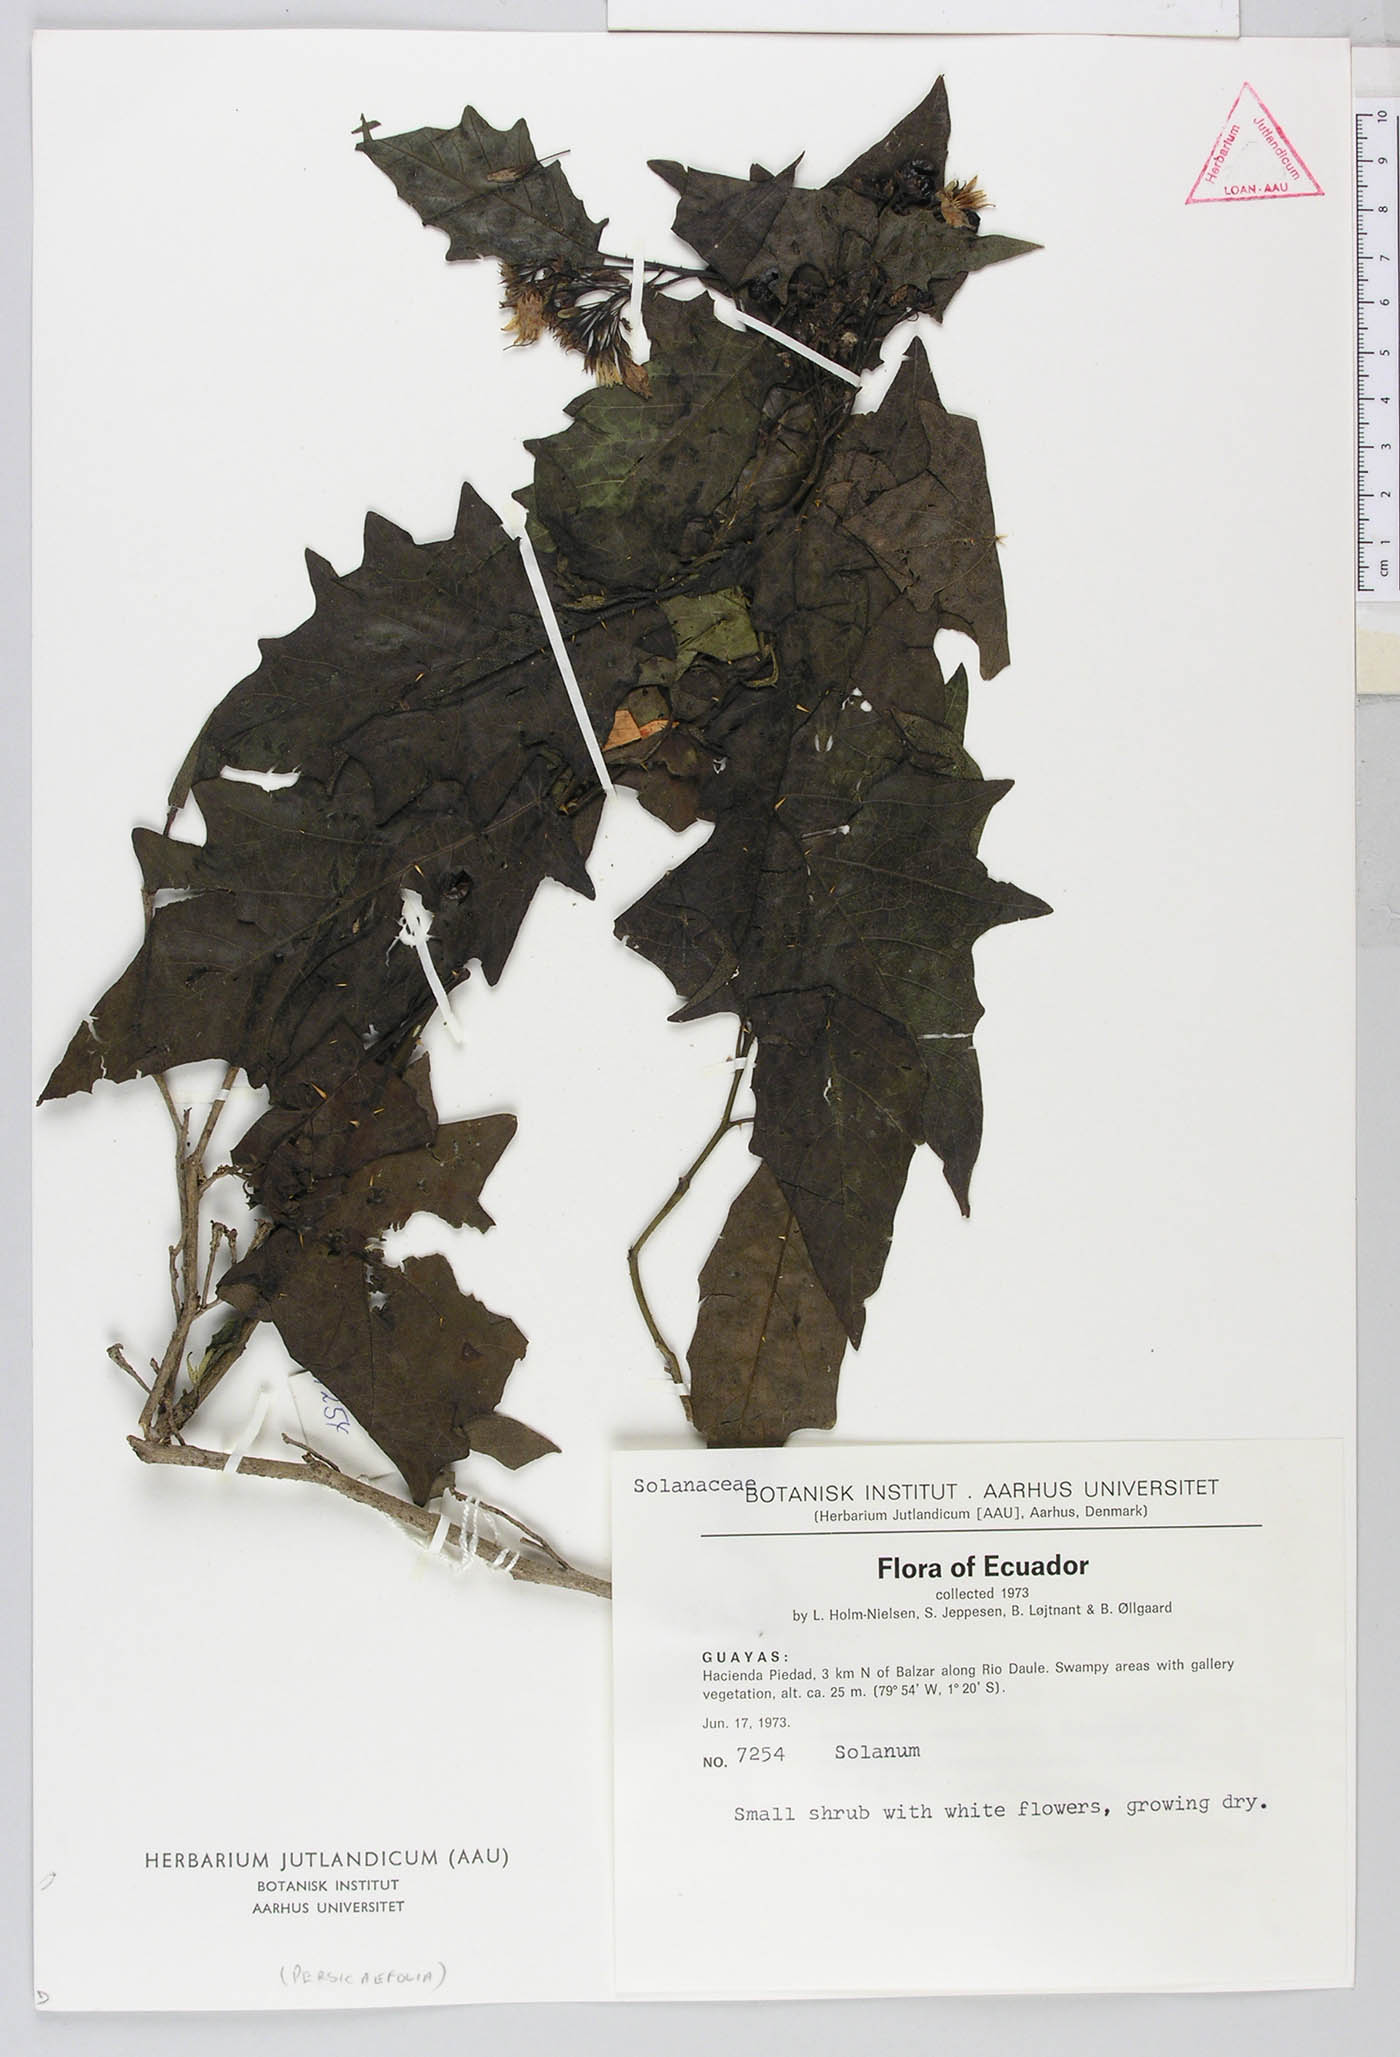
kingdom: Plantae
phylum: Tracheophyta
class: Magnoliopsida
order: Solanales
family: Solanaceae
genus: Solanum
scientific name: Solanum caricaefolium
